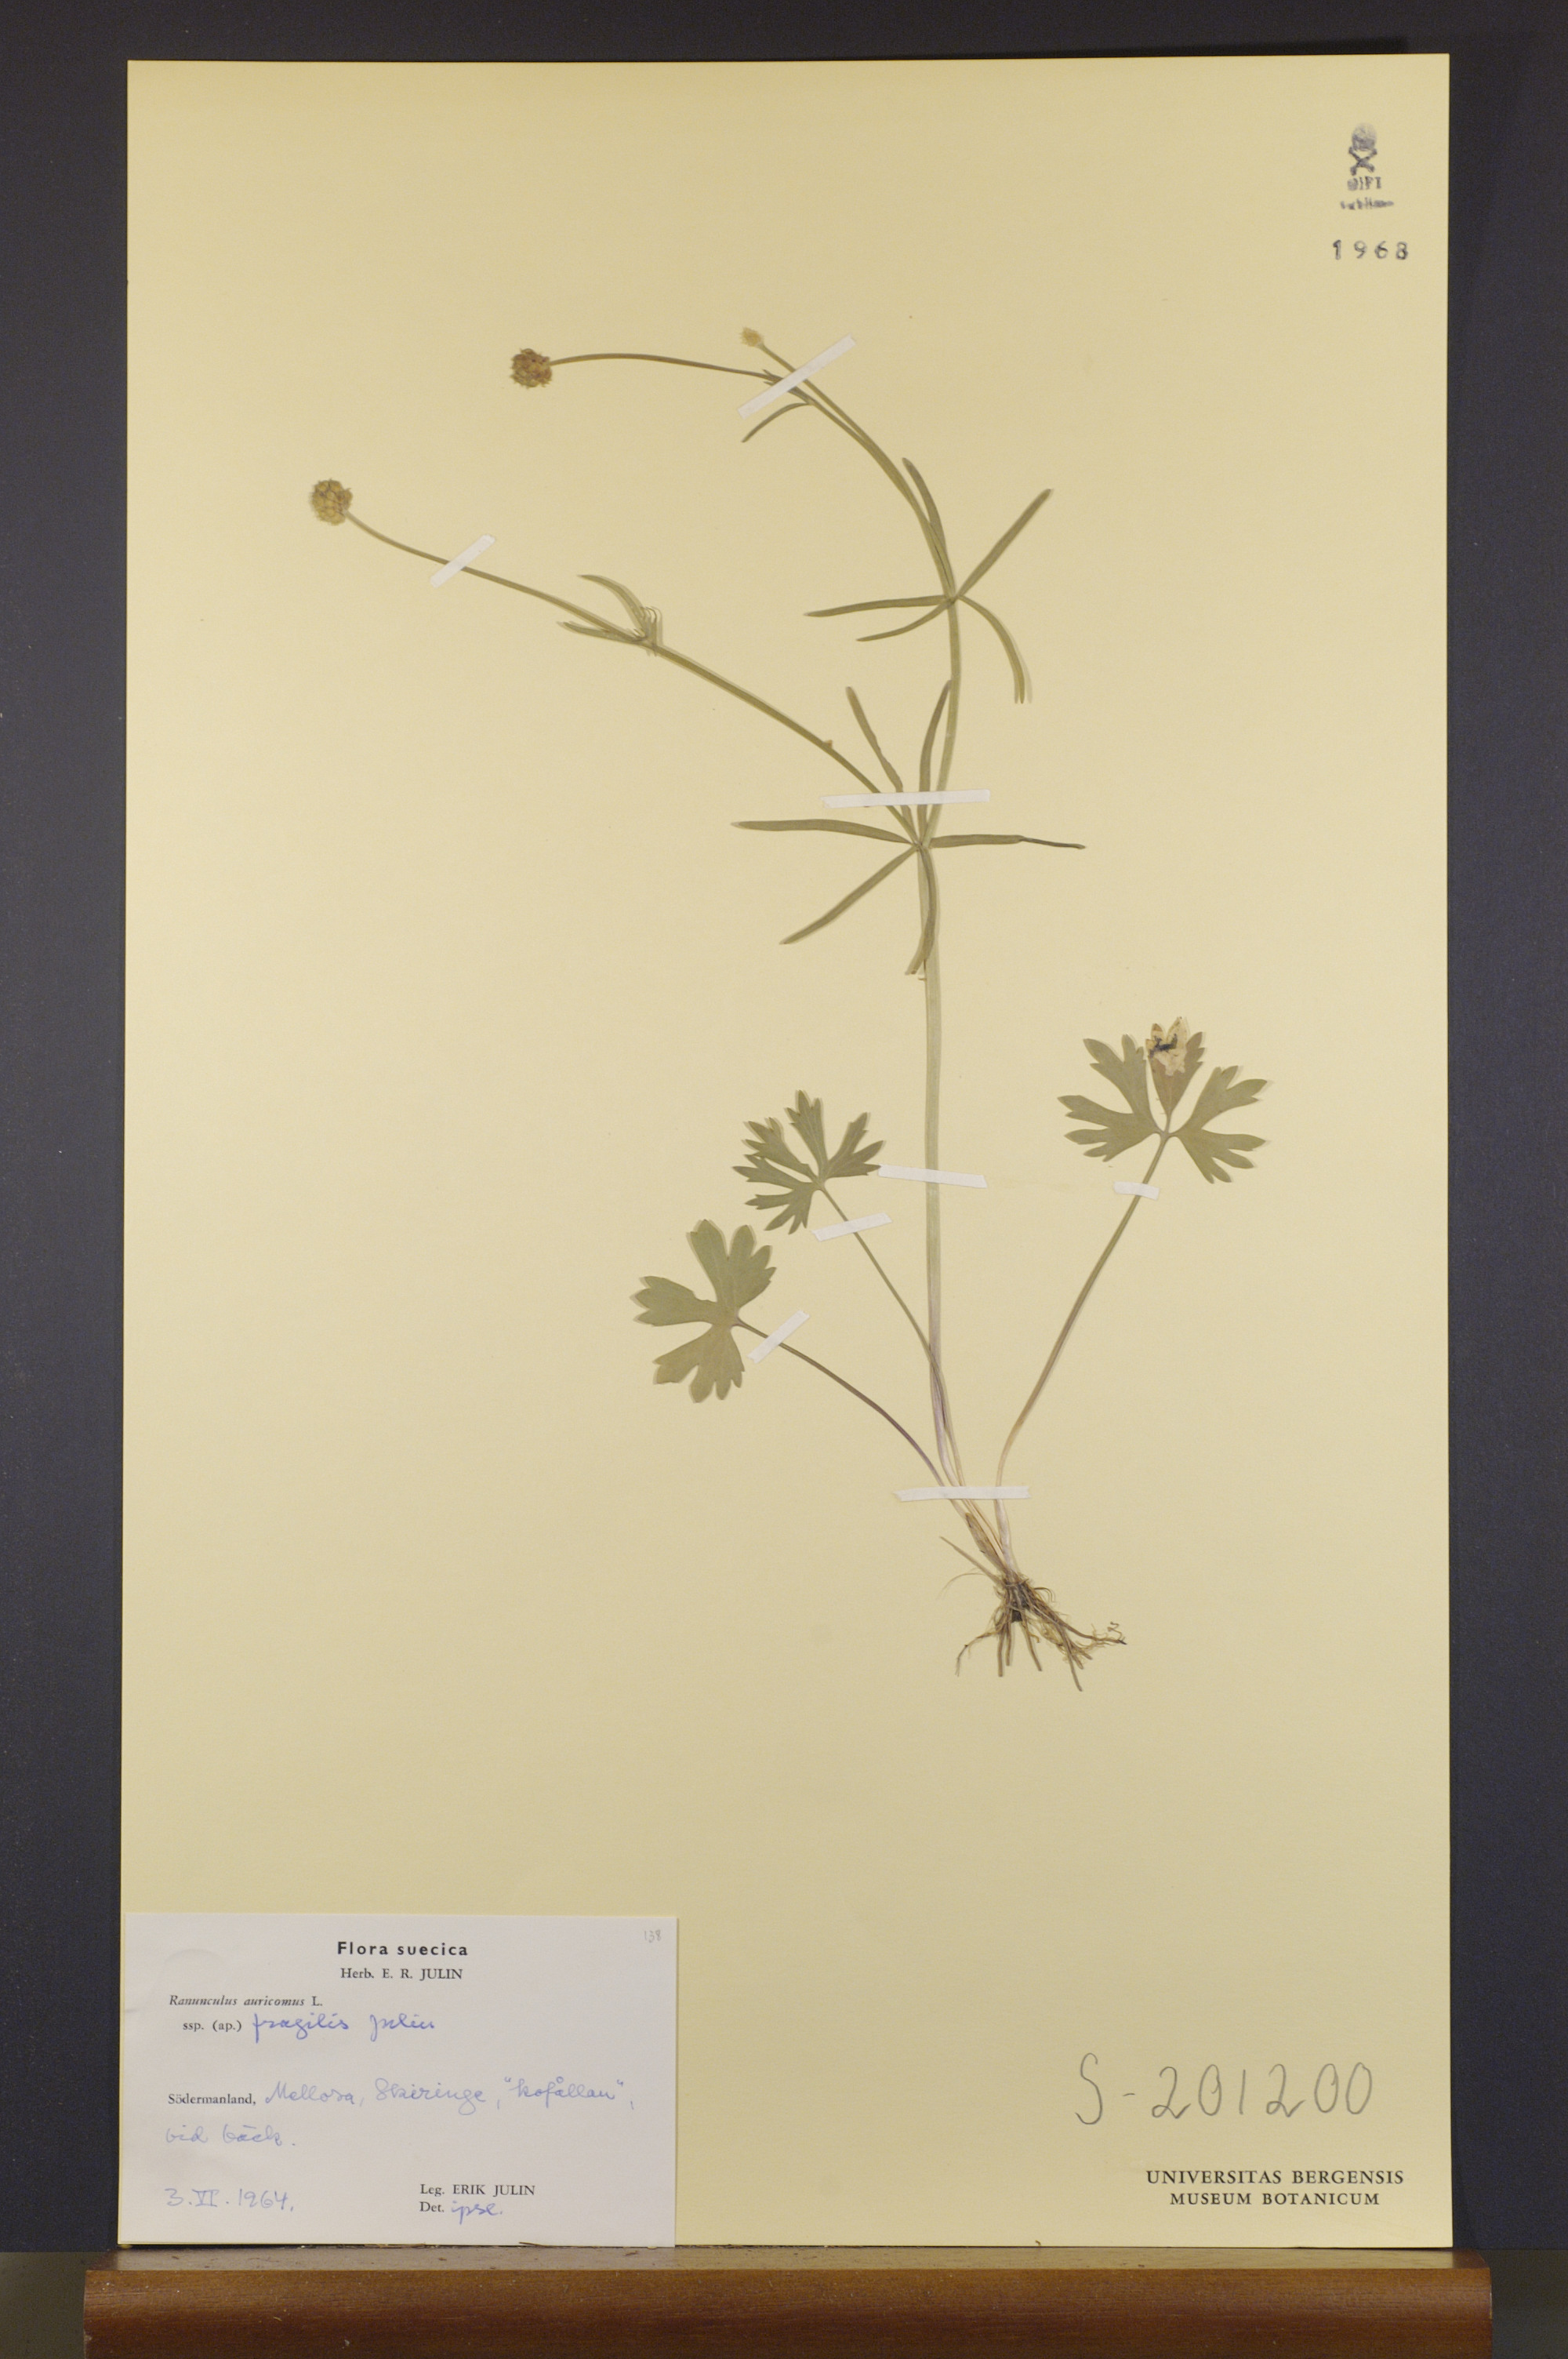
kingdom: Plantae
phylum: Tracheophyta
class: Magnoliopsida
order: Ranunculales
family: Ranunculaceae
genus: Ranunculus
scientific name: Ranunculus fragilis
